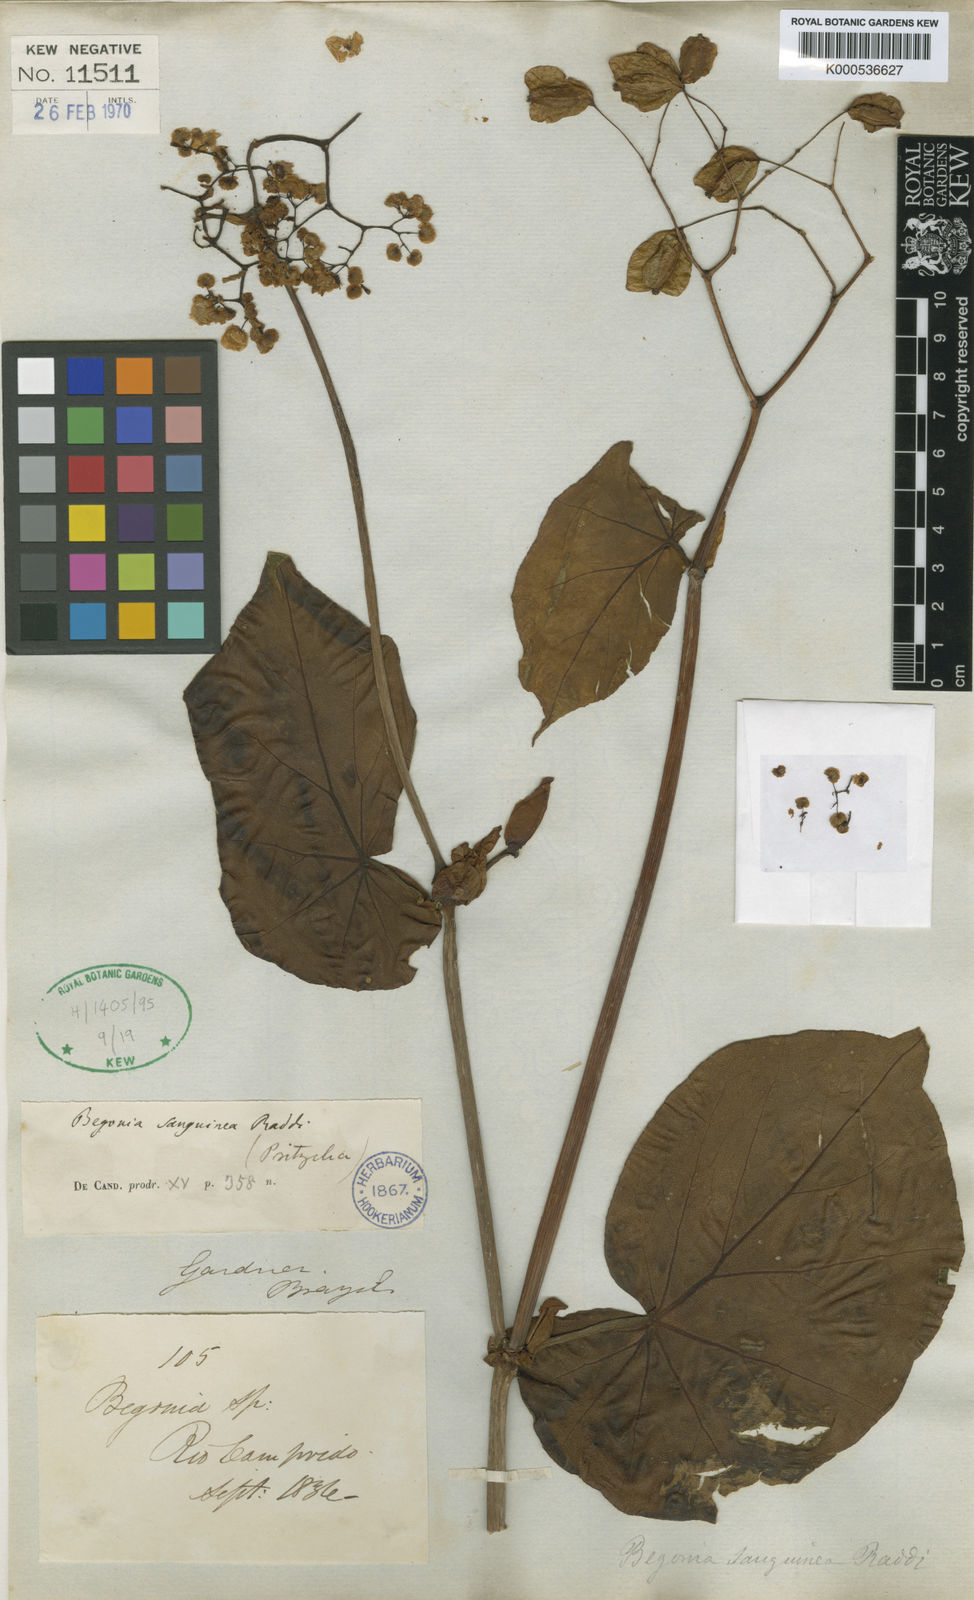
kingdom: Plantae
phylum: Tracheophyta
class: Magnoliopsida
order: Cucurbitales
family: Begoniaceae
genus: Begonia
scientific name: Begonia sanguinea
